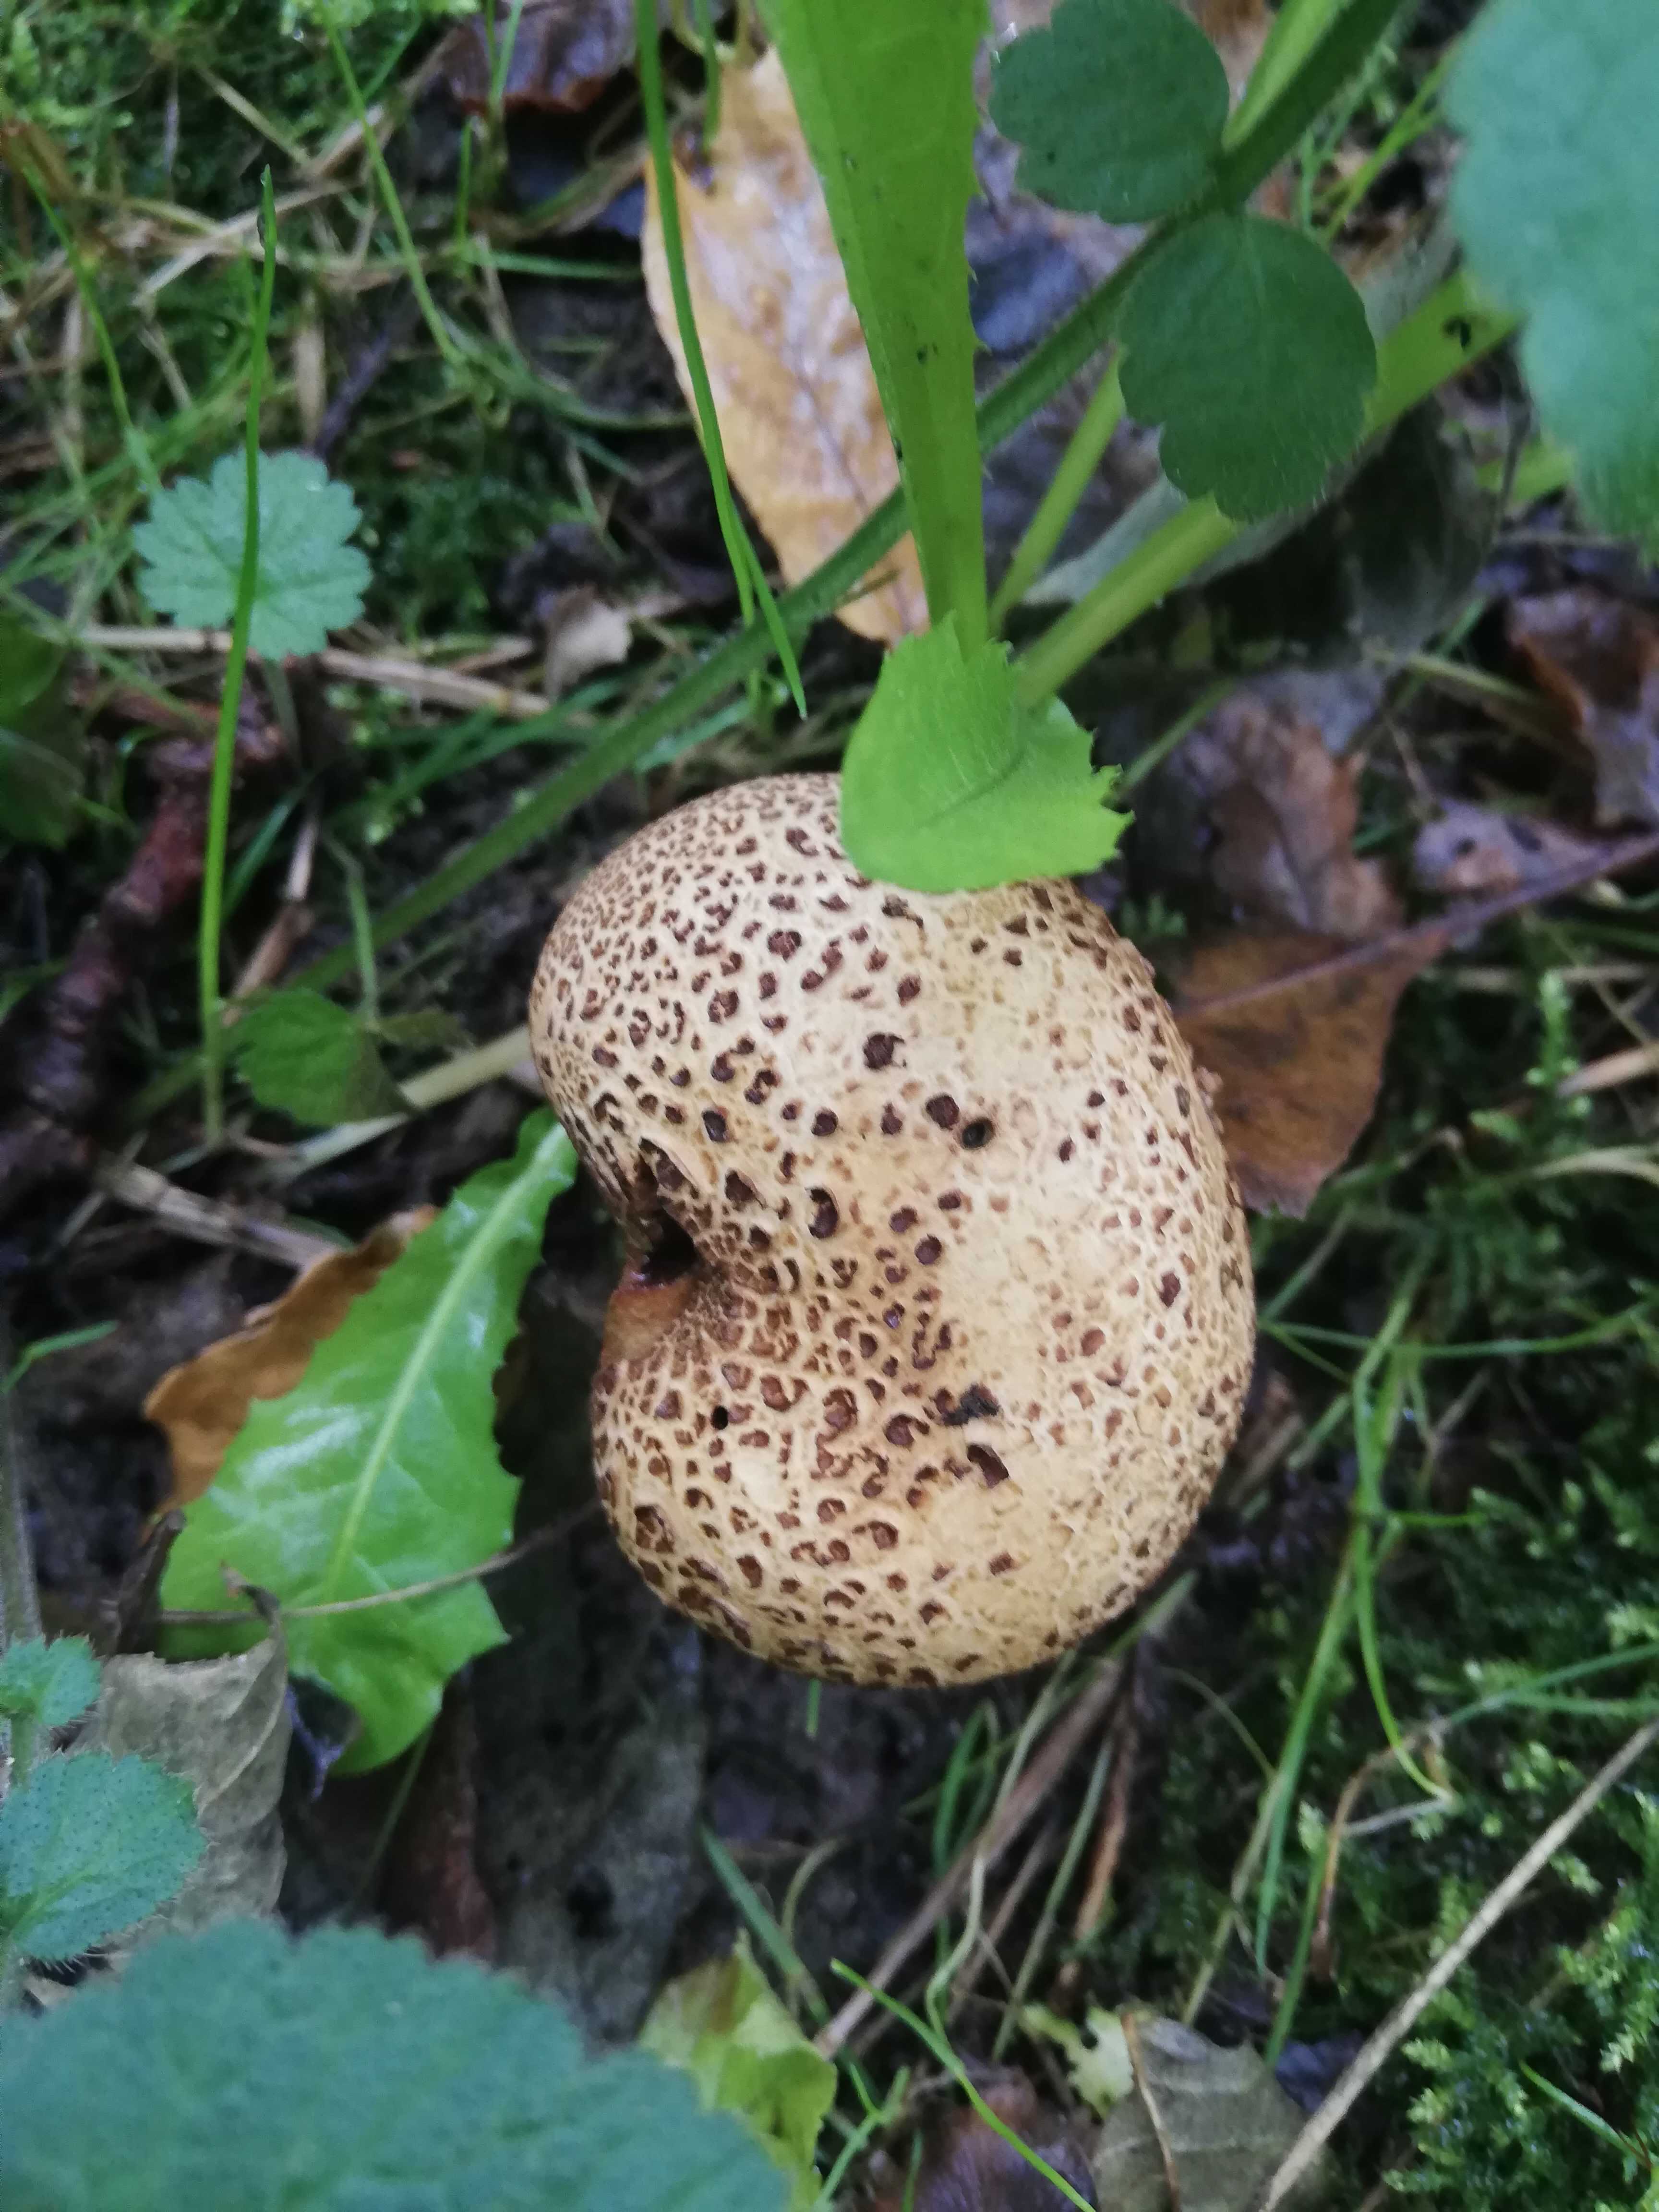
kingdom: Fungi
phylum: Basidiomycota
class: Agaricomycetes
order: Boletales
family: Sclerodermataceae
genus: Scleroderma
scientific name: Scleroderma
